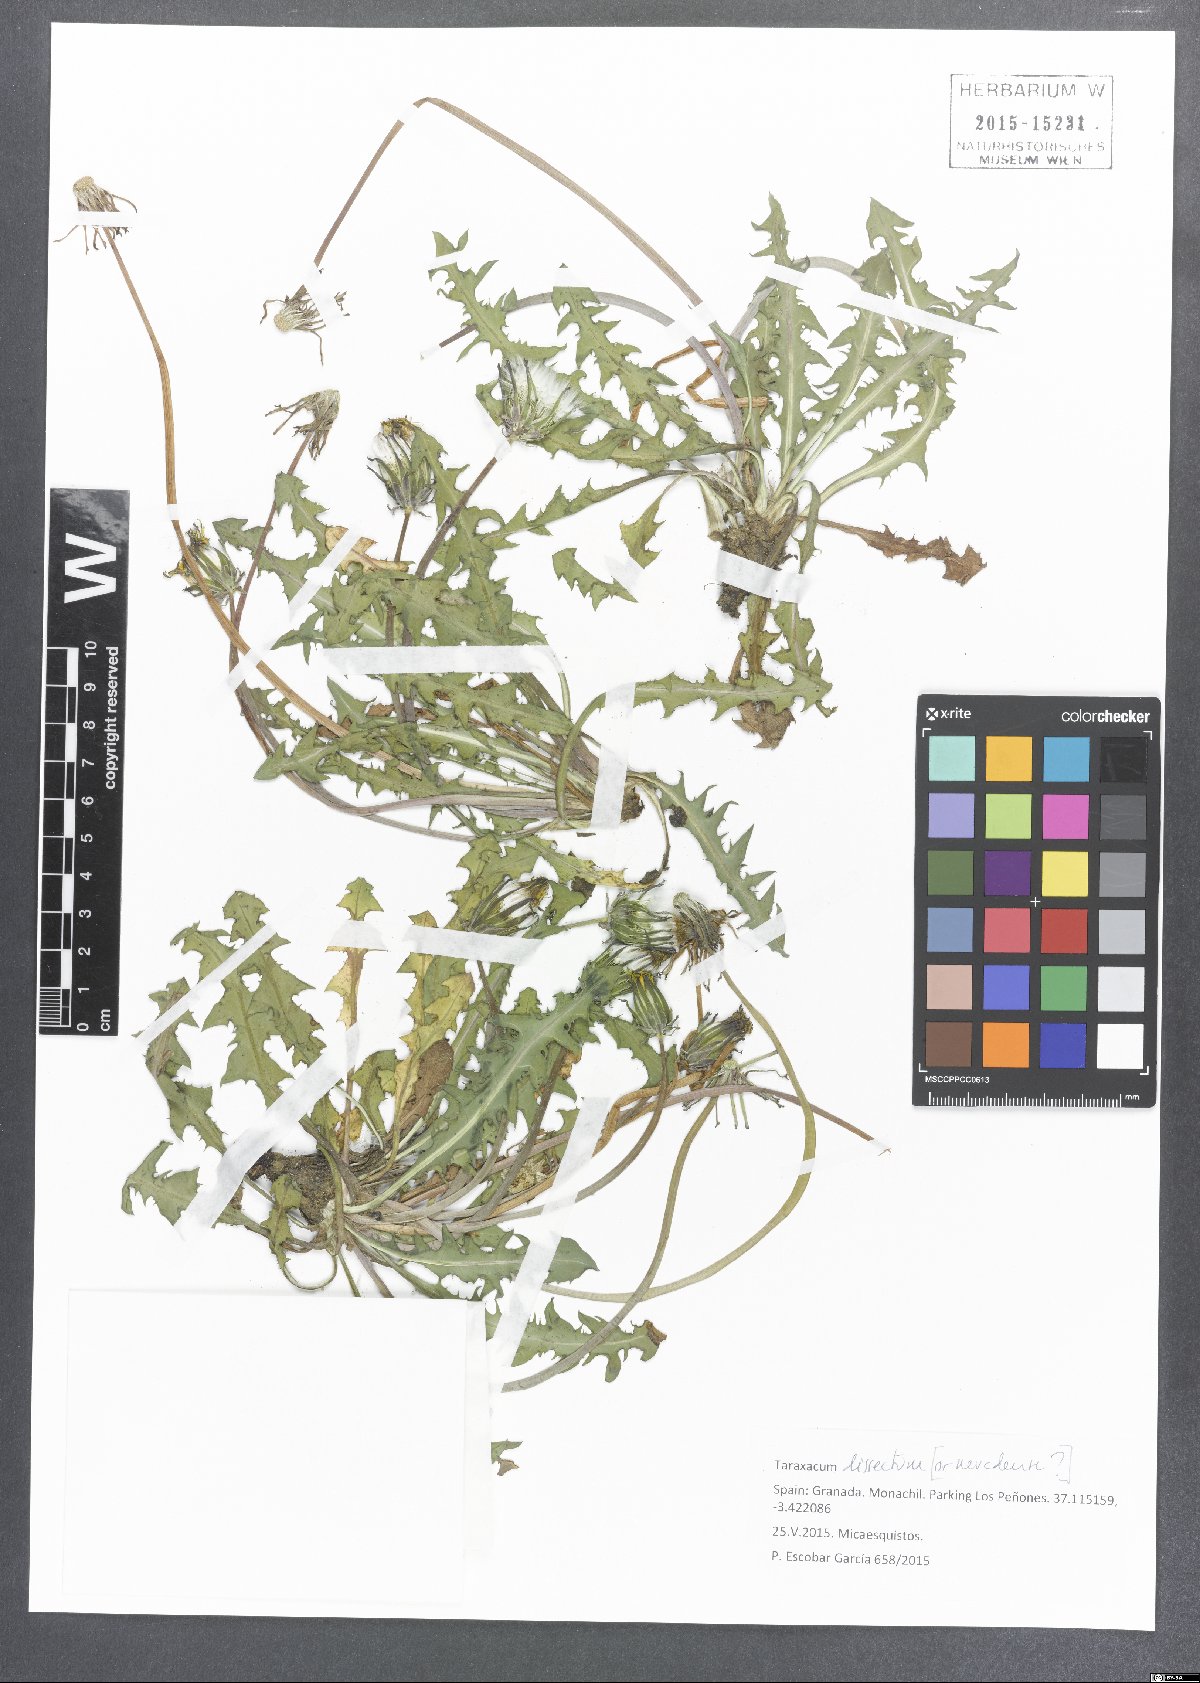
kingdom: Plantae
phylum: Tracheophyta
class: Magnoliopsida
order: Asterales
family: Asteraceae
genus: Taraxacum
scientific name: Taraxacum dissectum
